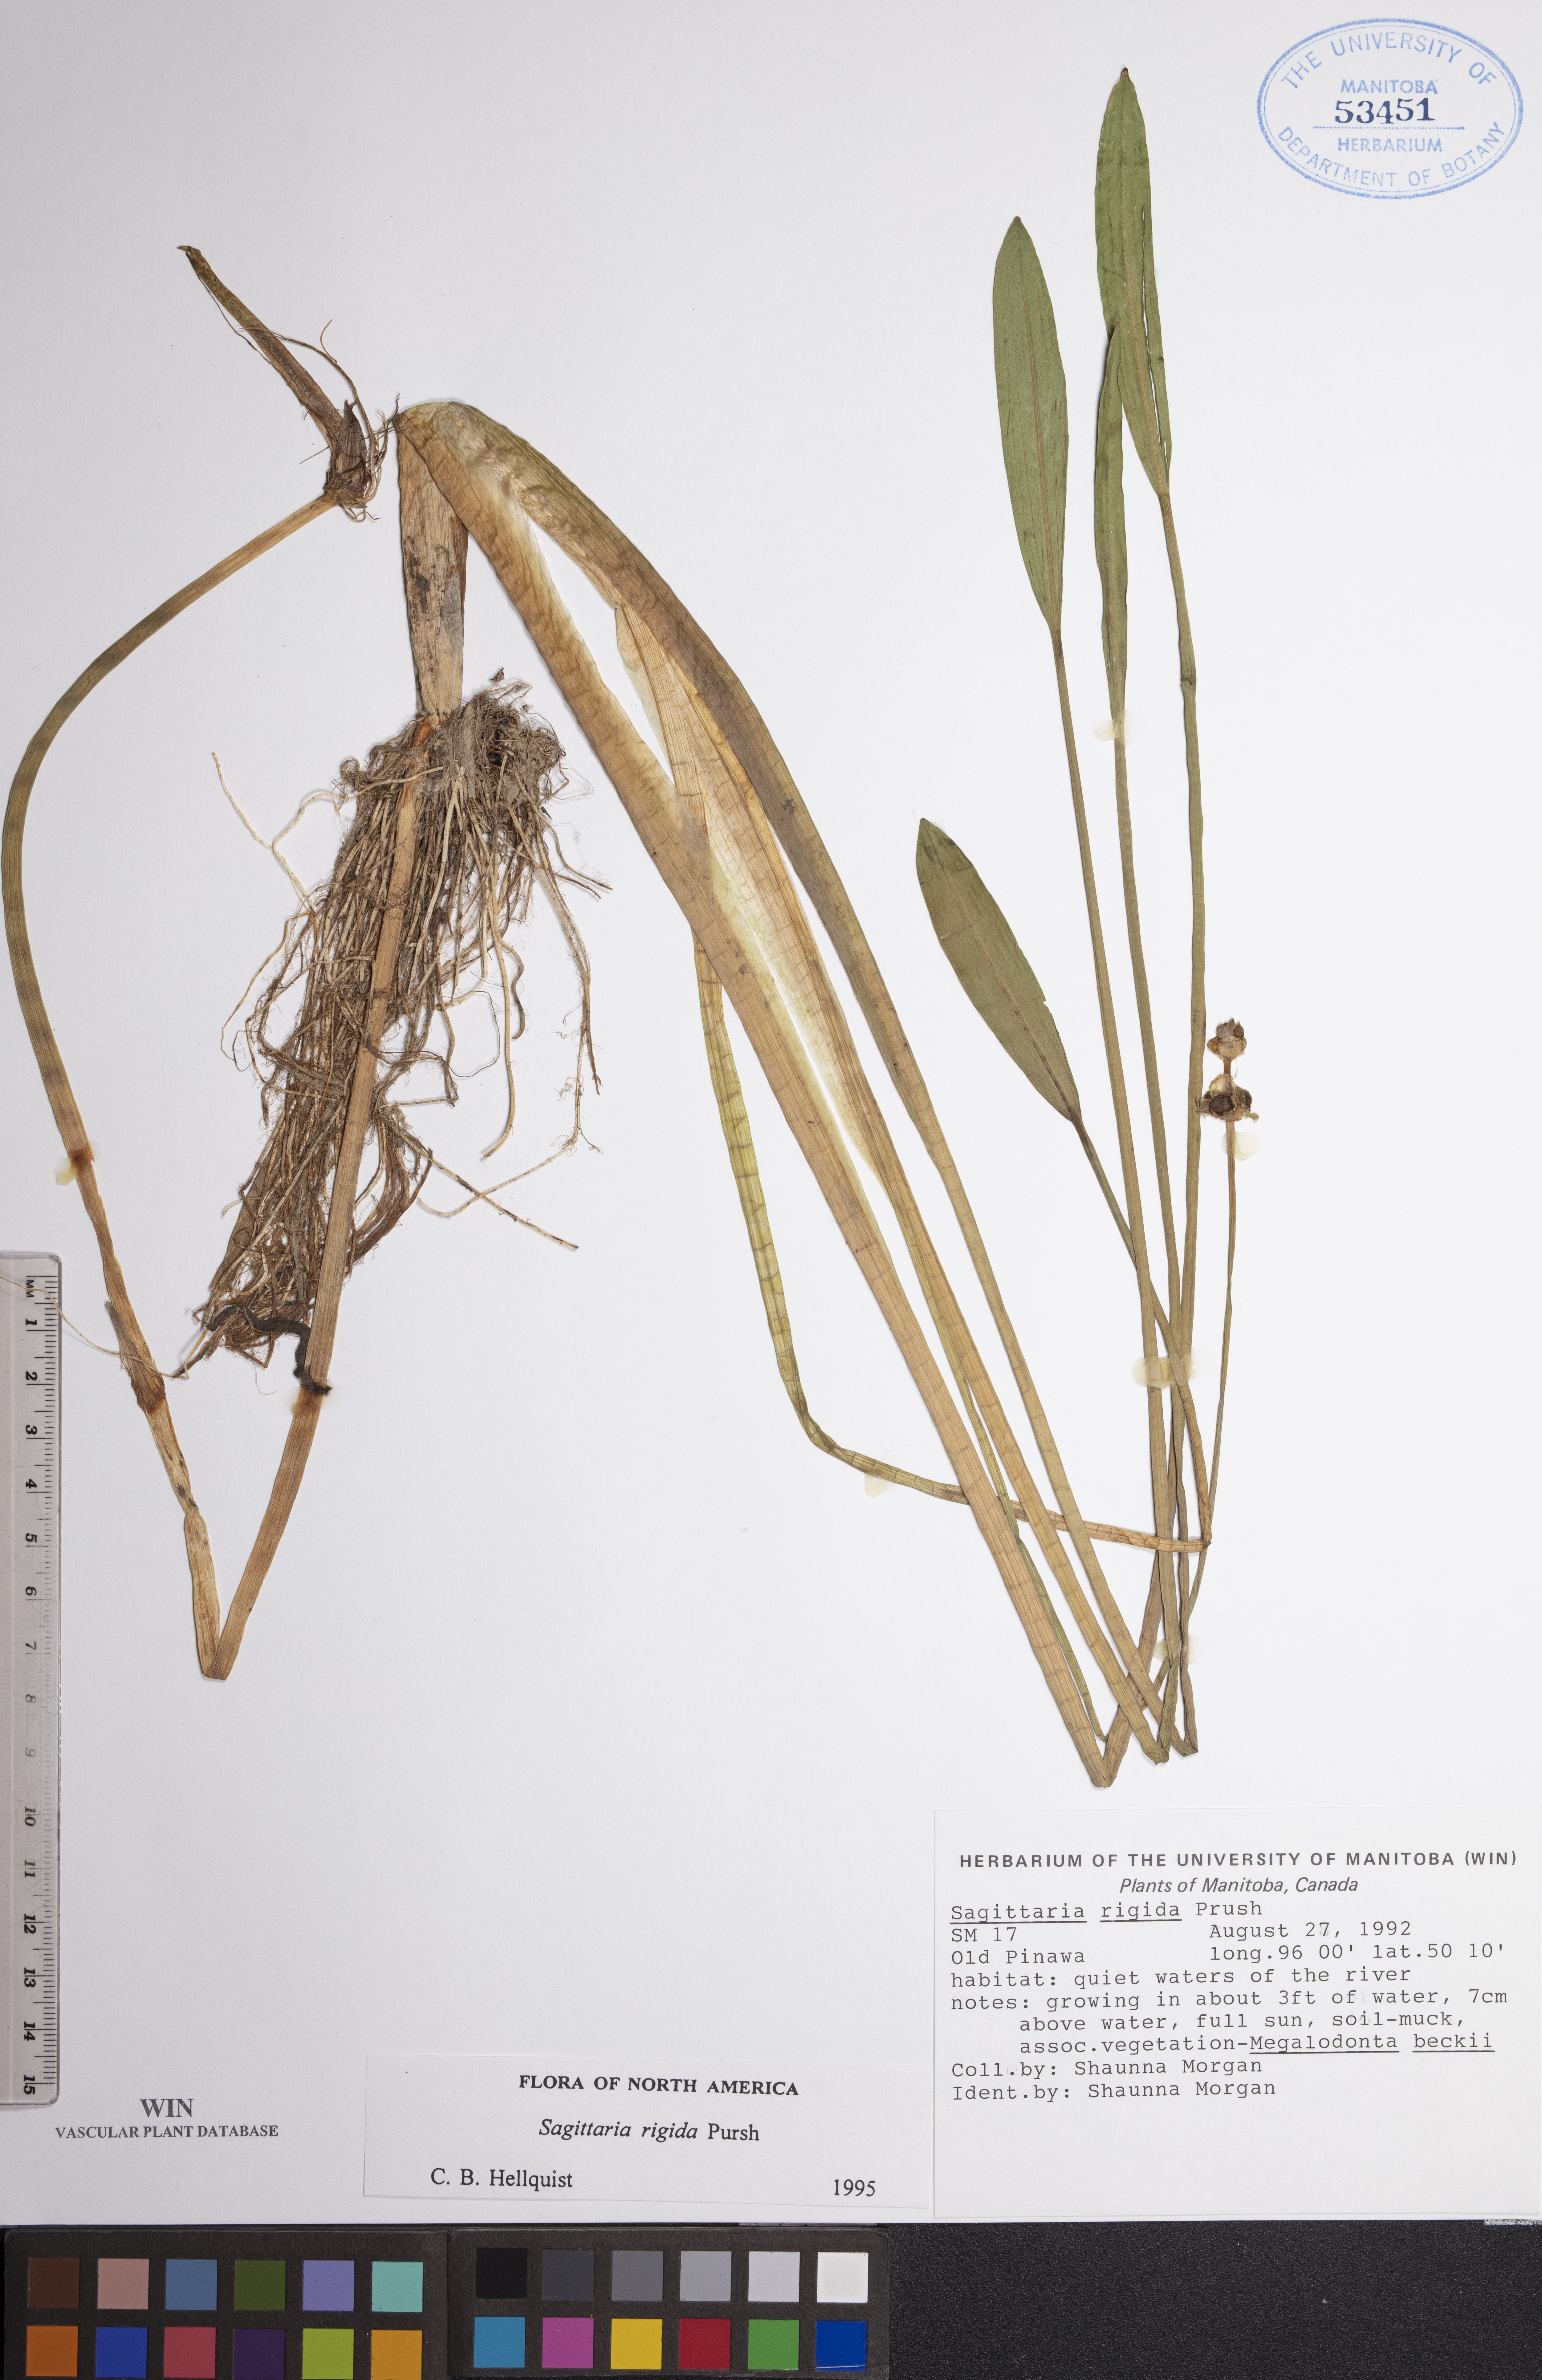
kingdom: Plantae
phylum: Tracheophyta
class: Liliopsida
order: Alismatales
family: Alismataceae
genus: Sagittaria
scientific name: Sagittaria rigida
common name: Canadian arrowhead
